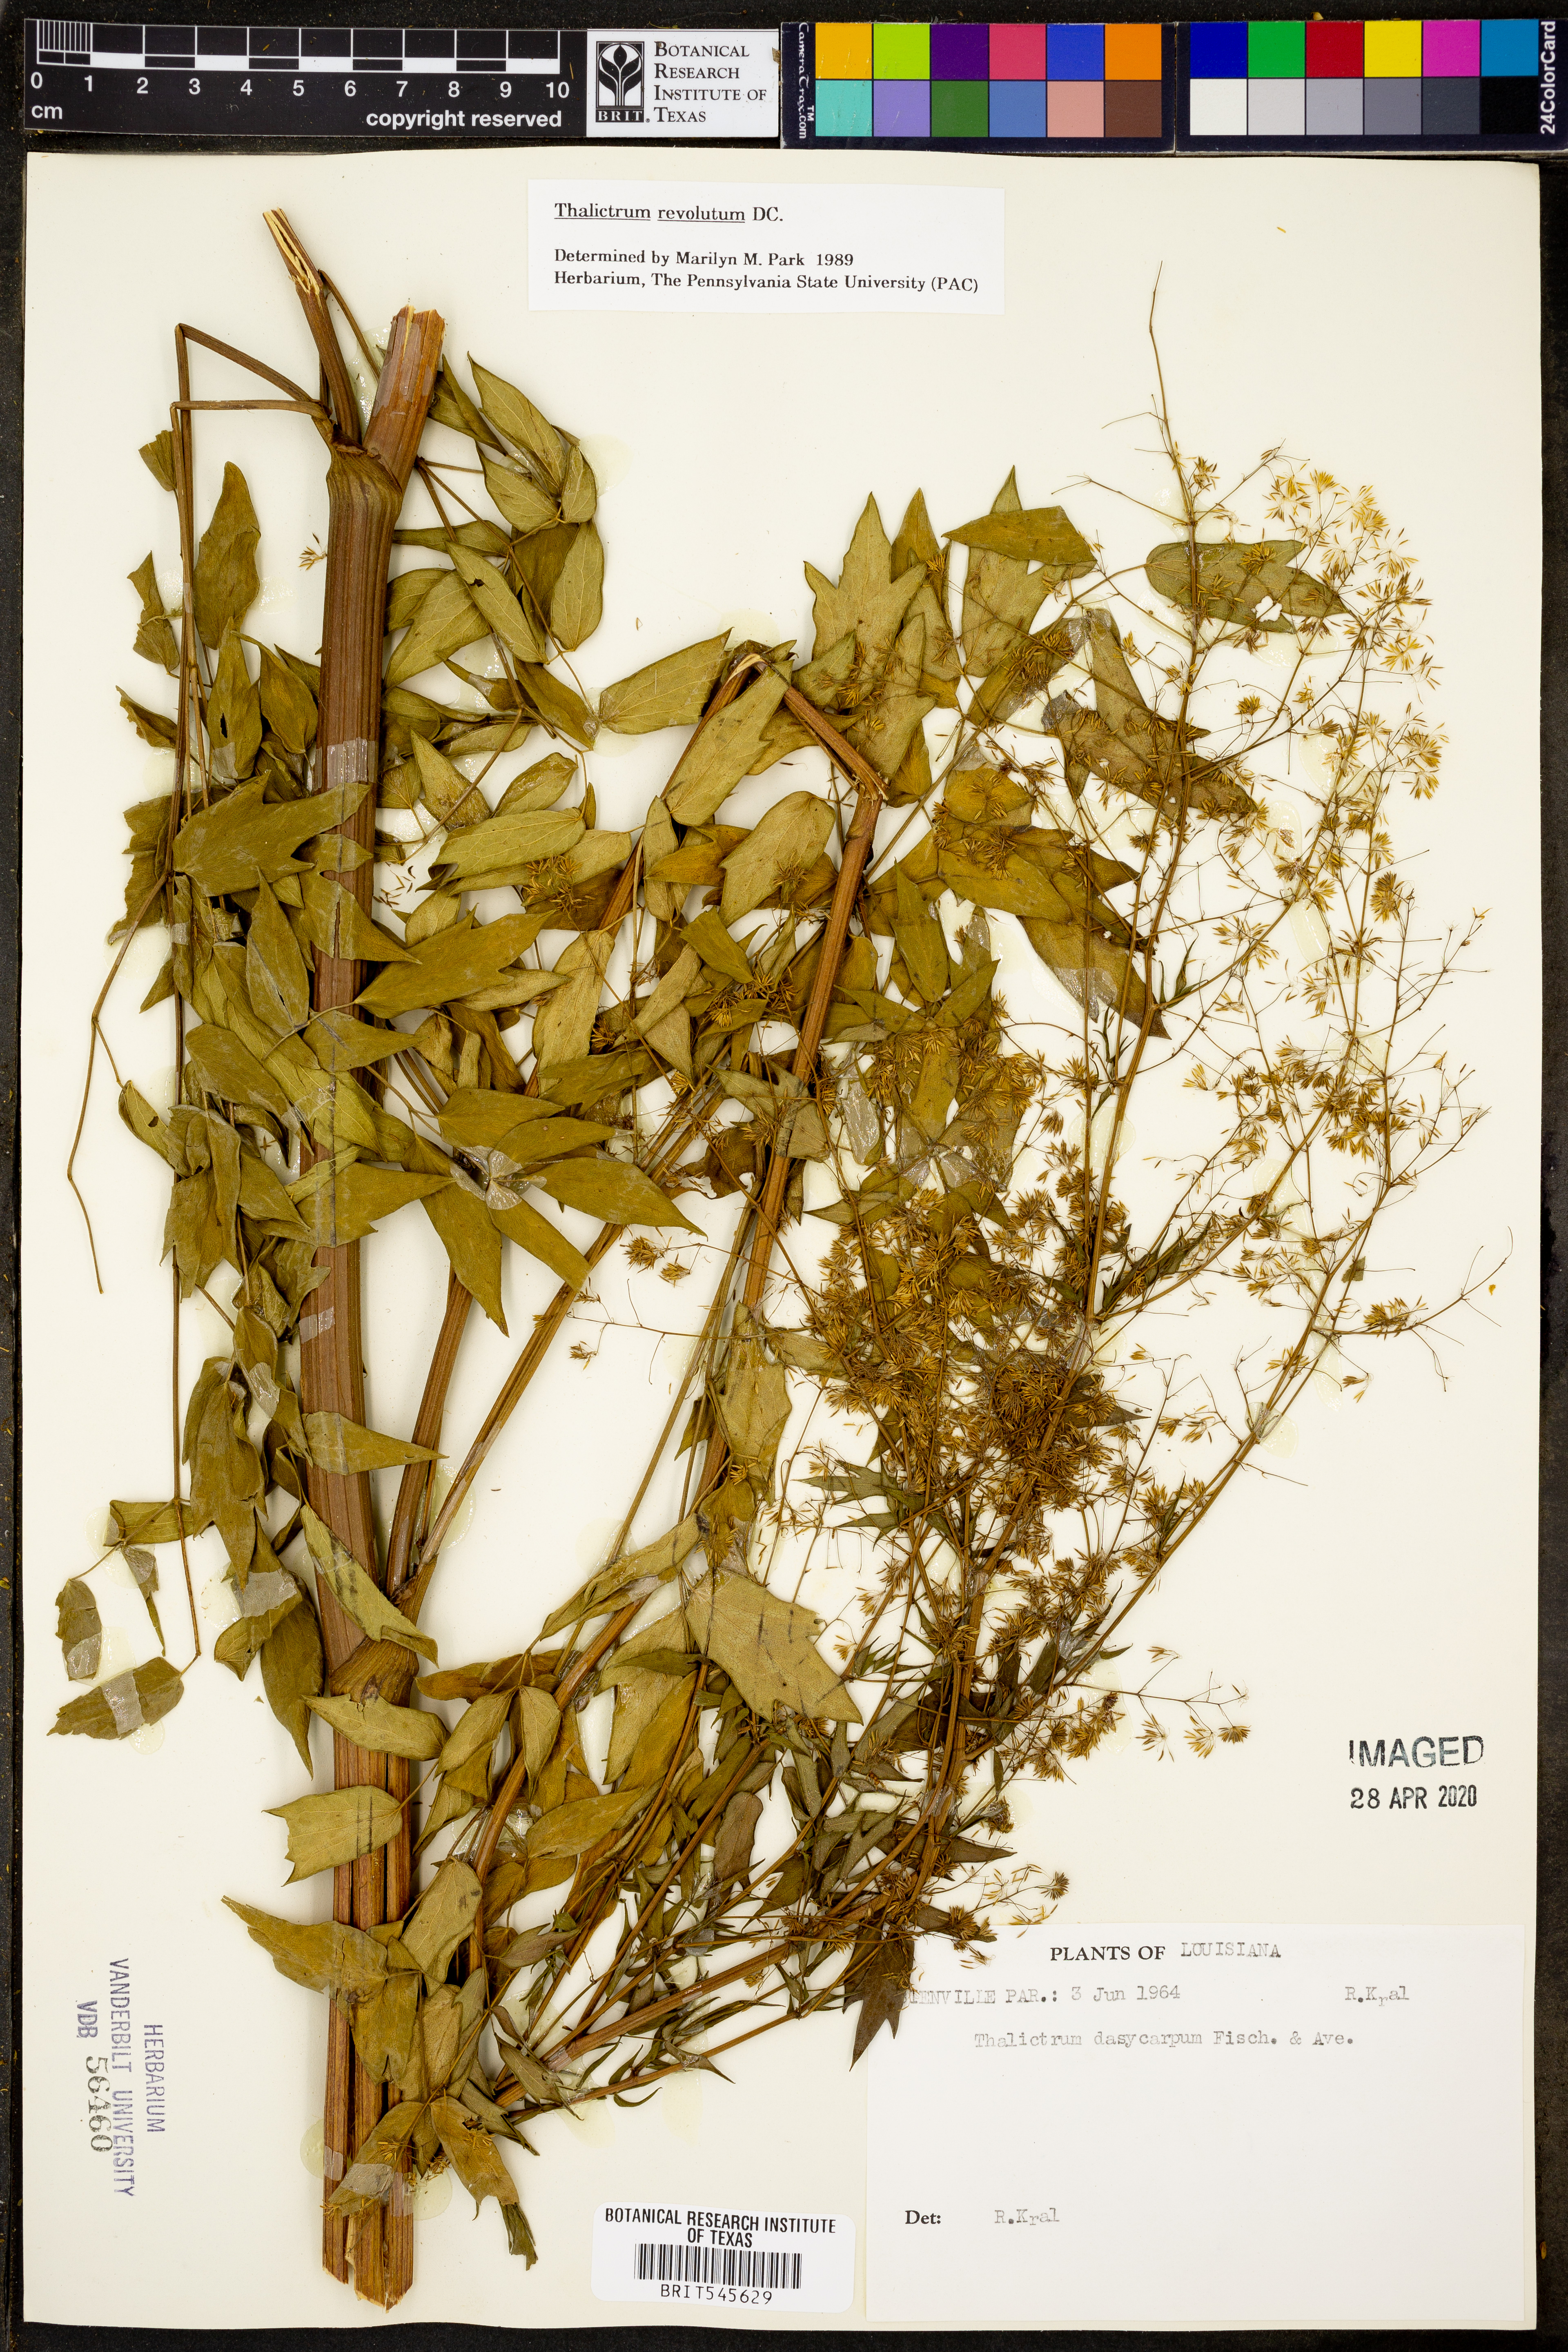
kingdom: Plantae
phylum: Tracheophyta
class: Magnoliopsida
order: Ranunculales
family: Ranunculaceae
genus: Thalictrum
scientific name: Thalictrum revolutum
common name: Waxy meadow-rue
